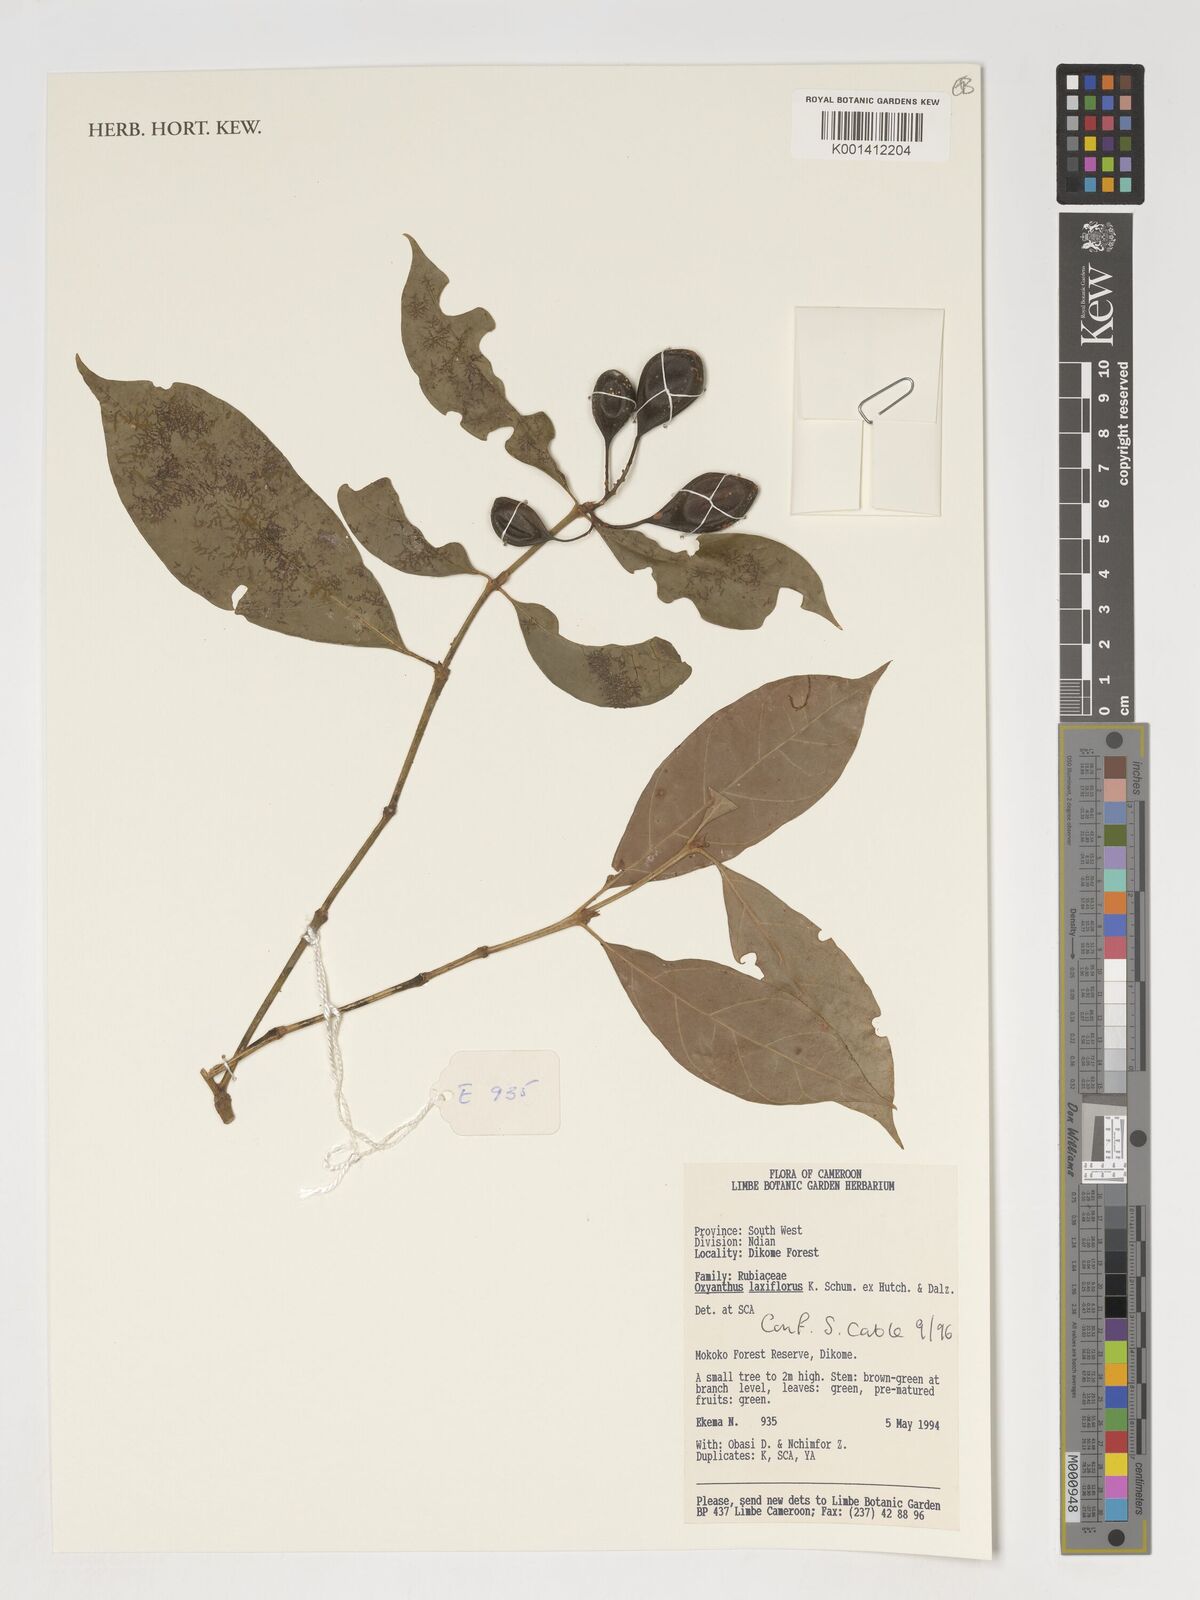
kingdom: Plantae
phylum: Tracheophyta
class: Magnoliopsida
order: Gentianales
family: Rubiaceae
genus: Oxyanthus
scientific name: Oxyanthus laxiflorus
